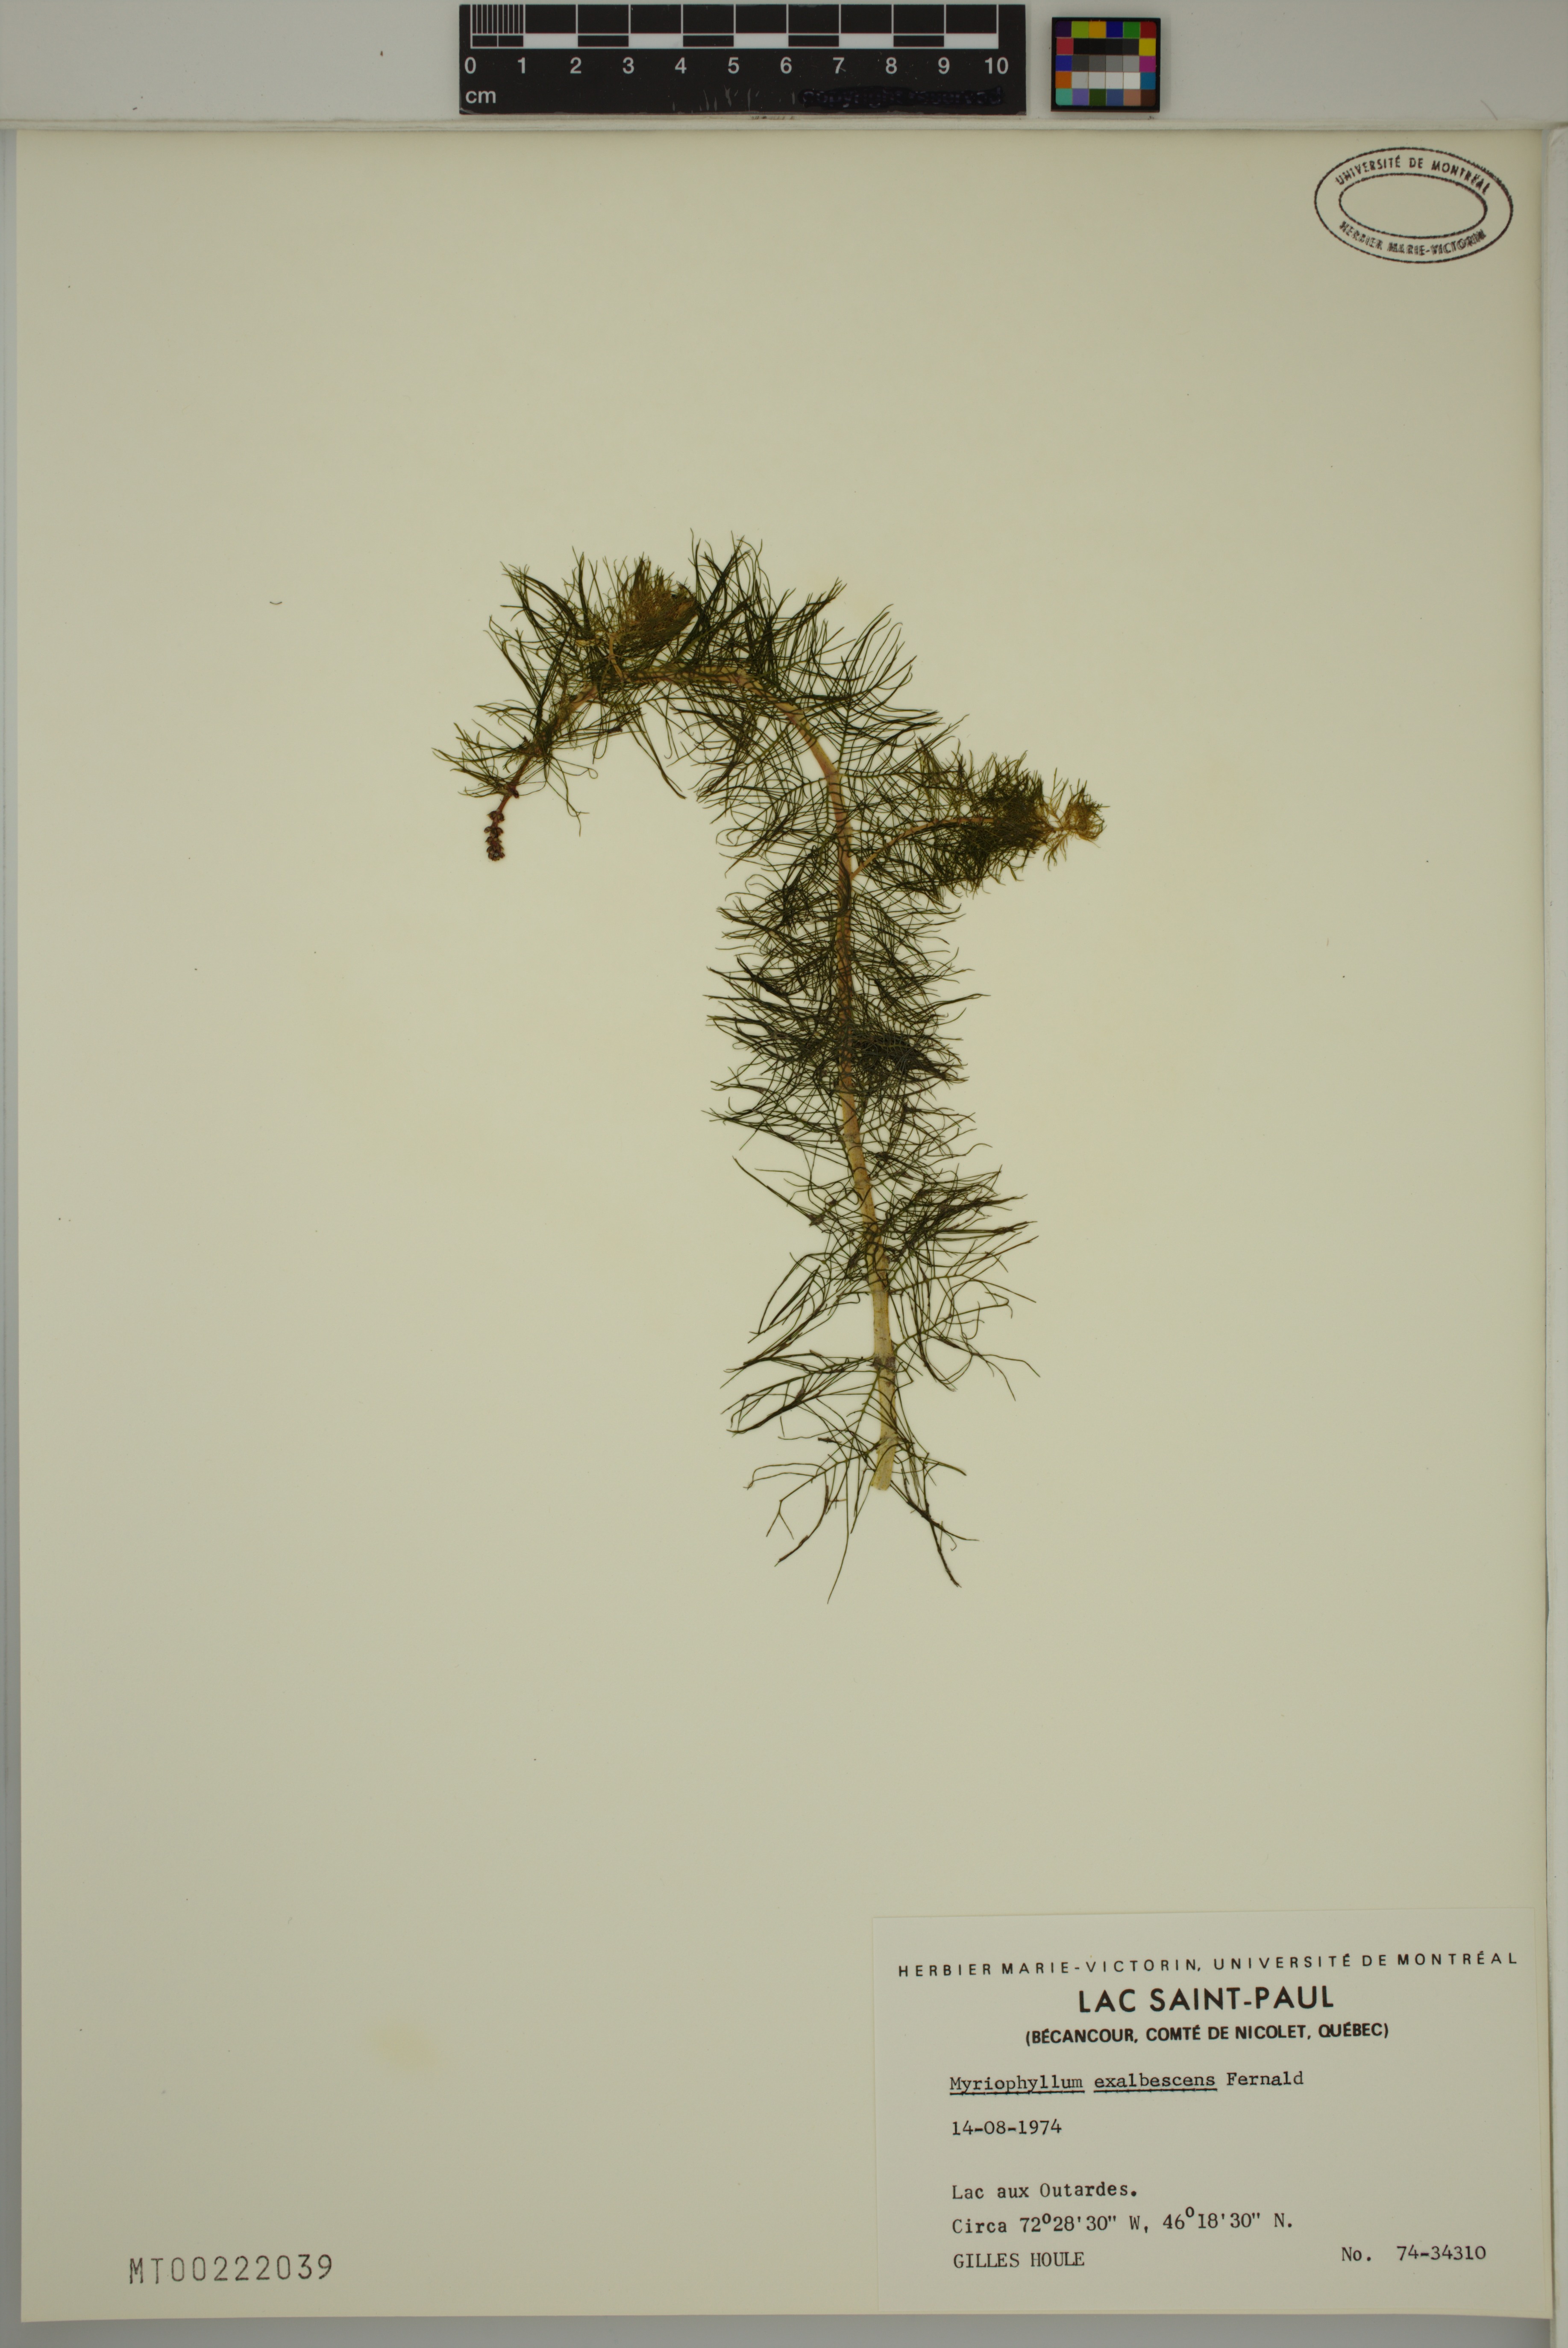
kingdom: Plantae
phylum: Tracheophyta
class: Magnoliopsida
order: Saxifragales
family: Haloragaceae
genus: Myriophyllum
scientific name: Myriophyllum sibiricum
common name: Siberian water-milfoil
